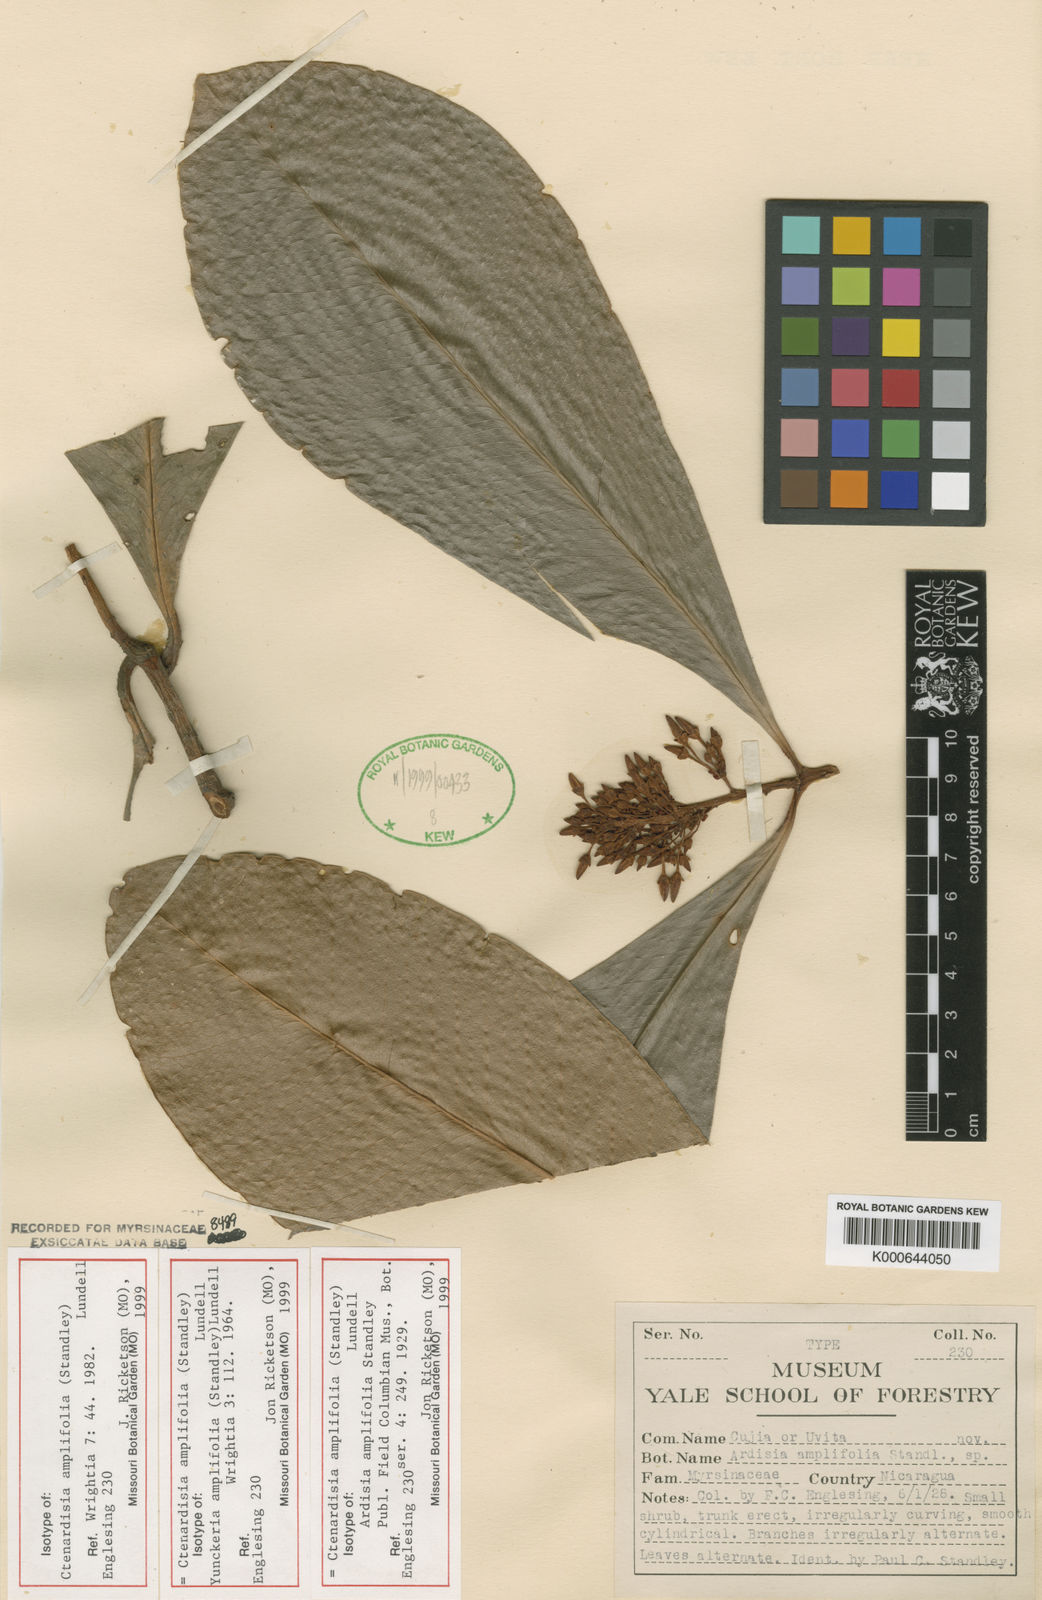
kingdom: Plantae
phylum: Tracheophyta
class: Magnoliopsida
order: Ericales
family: Primulaceae
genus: Ctenardisia
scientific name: Ctenardisia amplifolia
